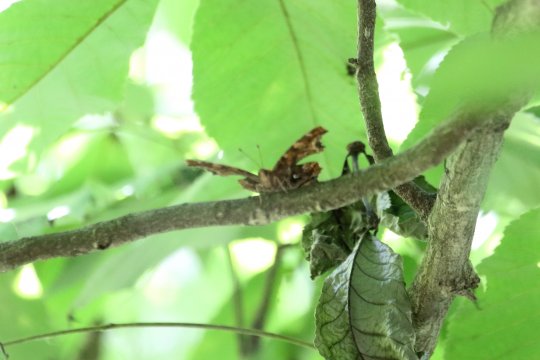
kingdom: Animalia
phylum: Arthropoda
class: Insecta
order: Lepidoptera
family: Nymphalidae
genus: Polygonia
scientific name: Polygonia
